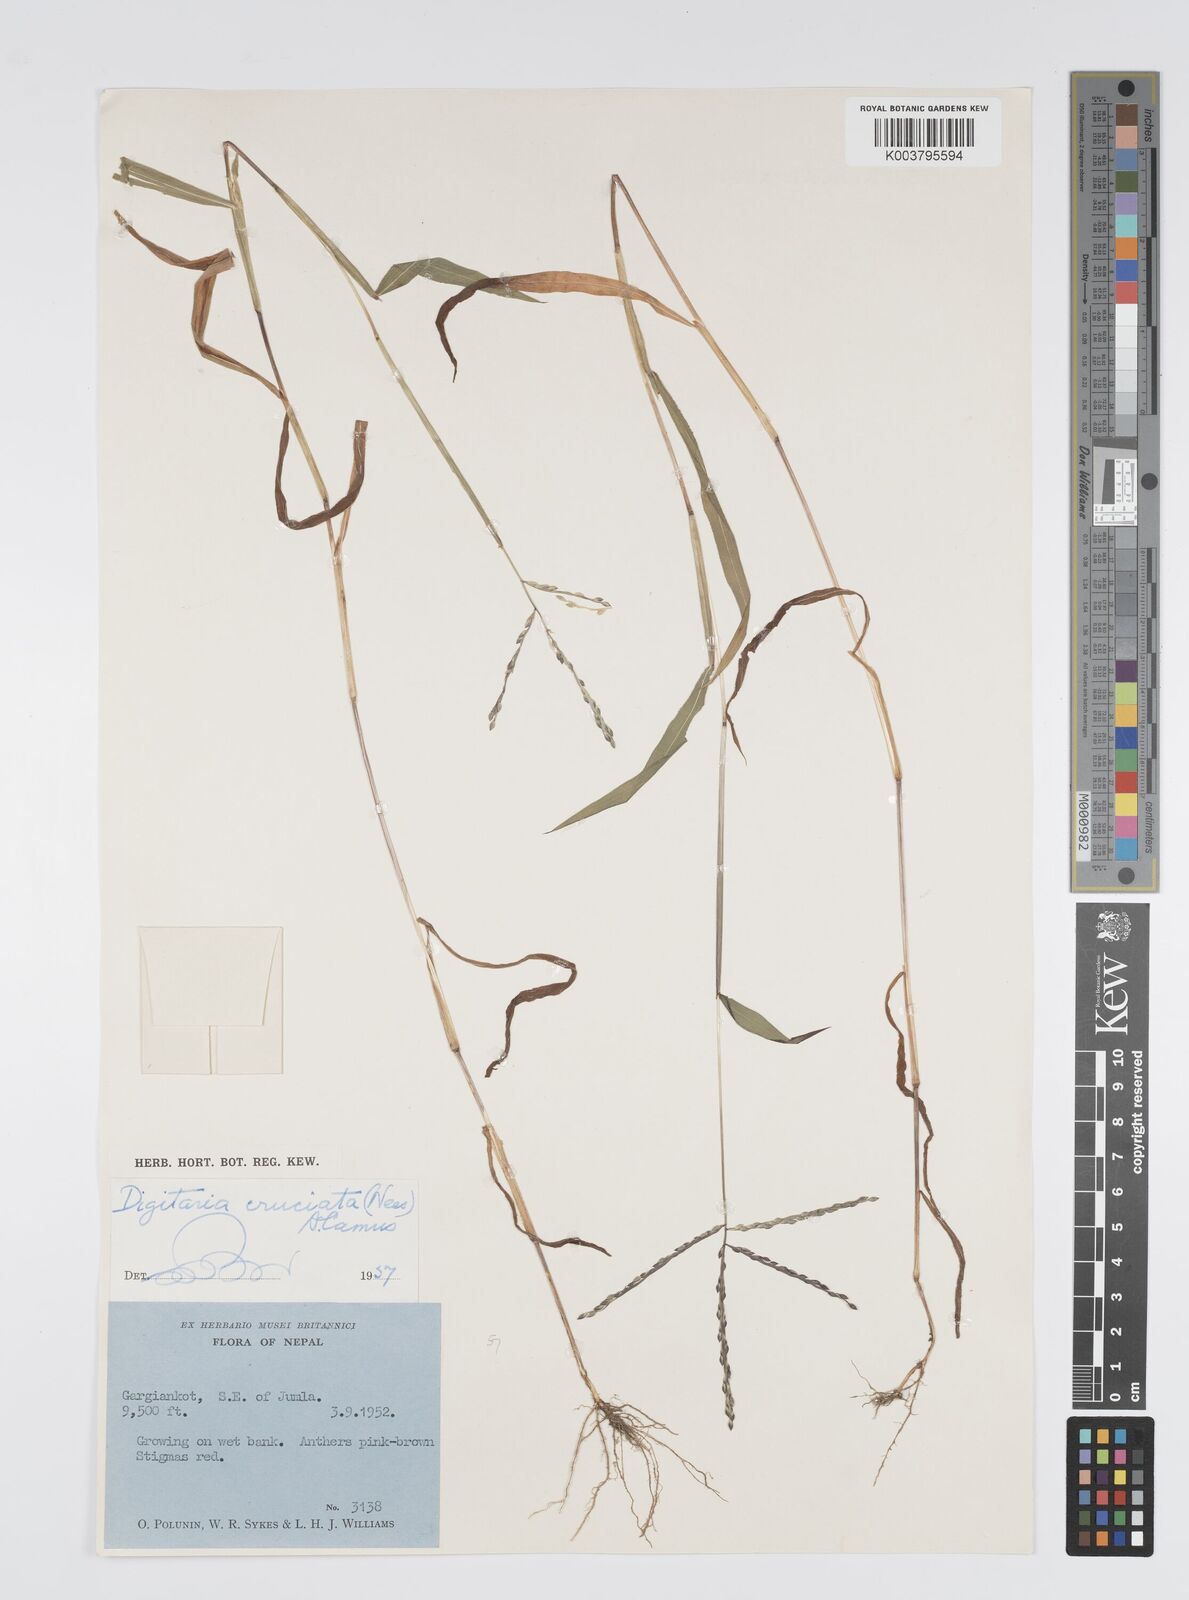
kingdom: Plantae
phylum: Tracheophyta
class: Liliopsida
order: Poales
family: Poaceae
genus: Digitaria
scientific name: Digitaria sanguinalis
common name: Hairy crabgrass
